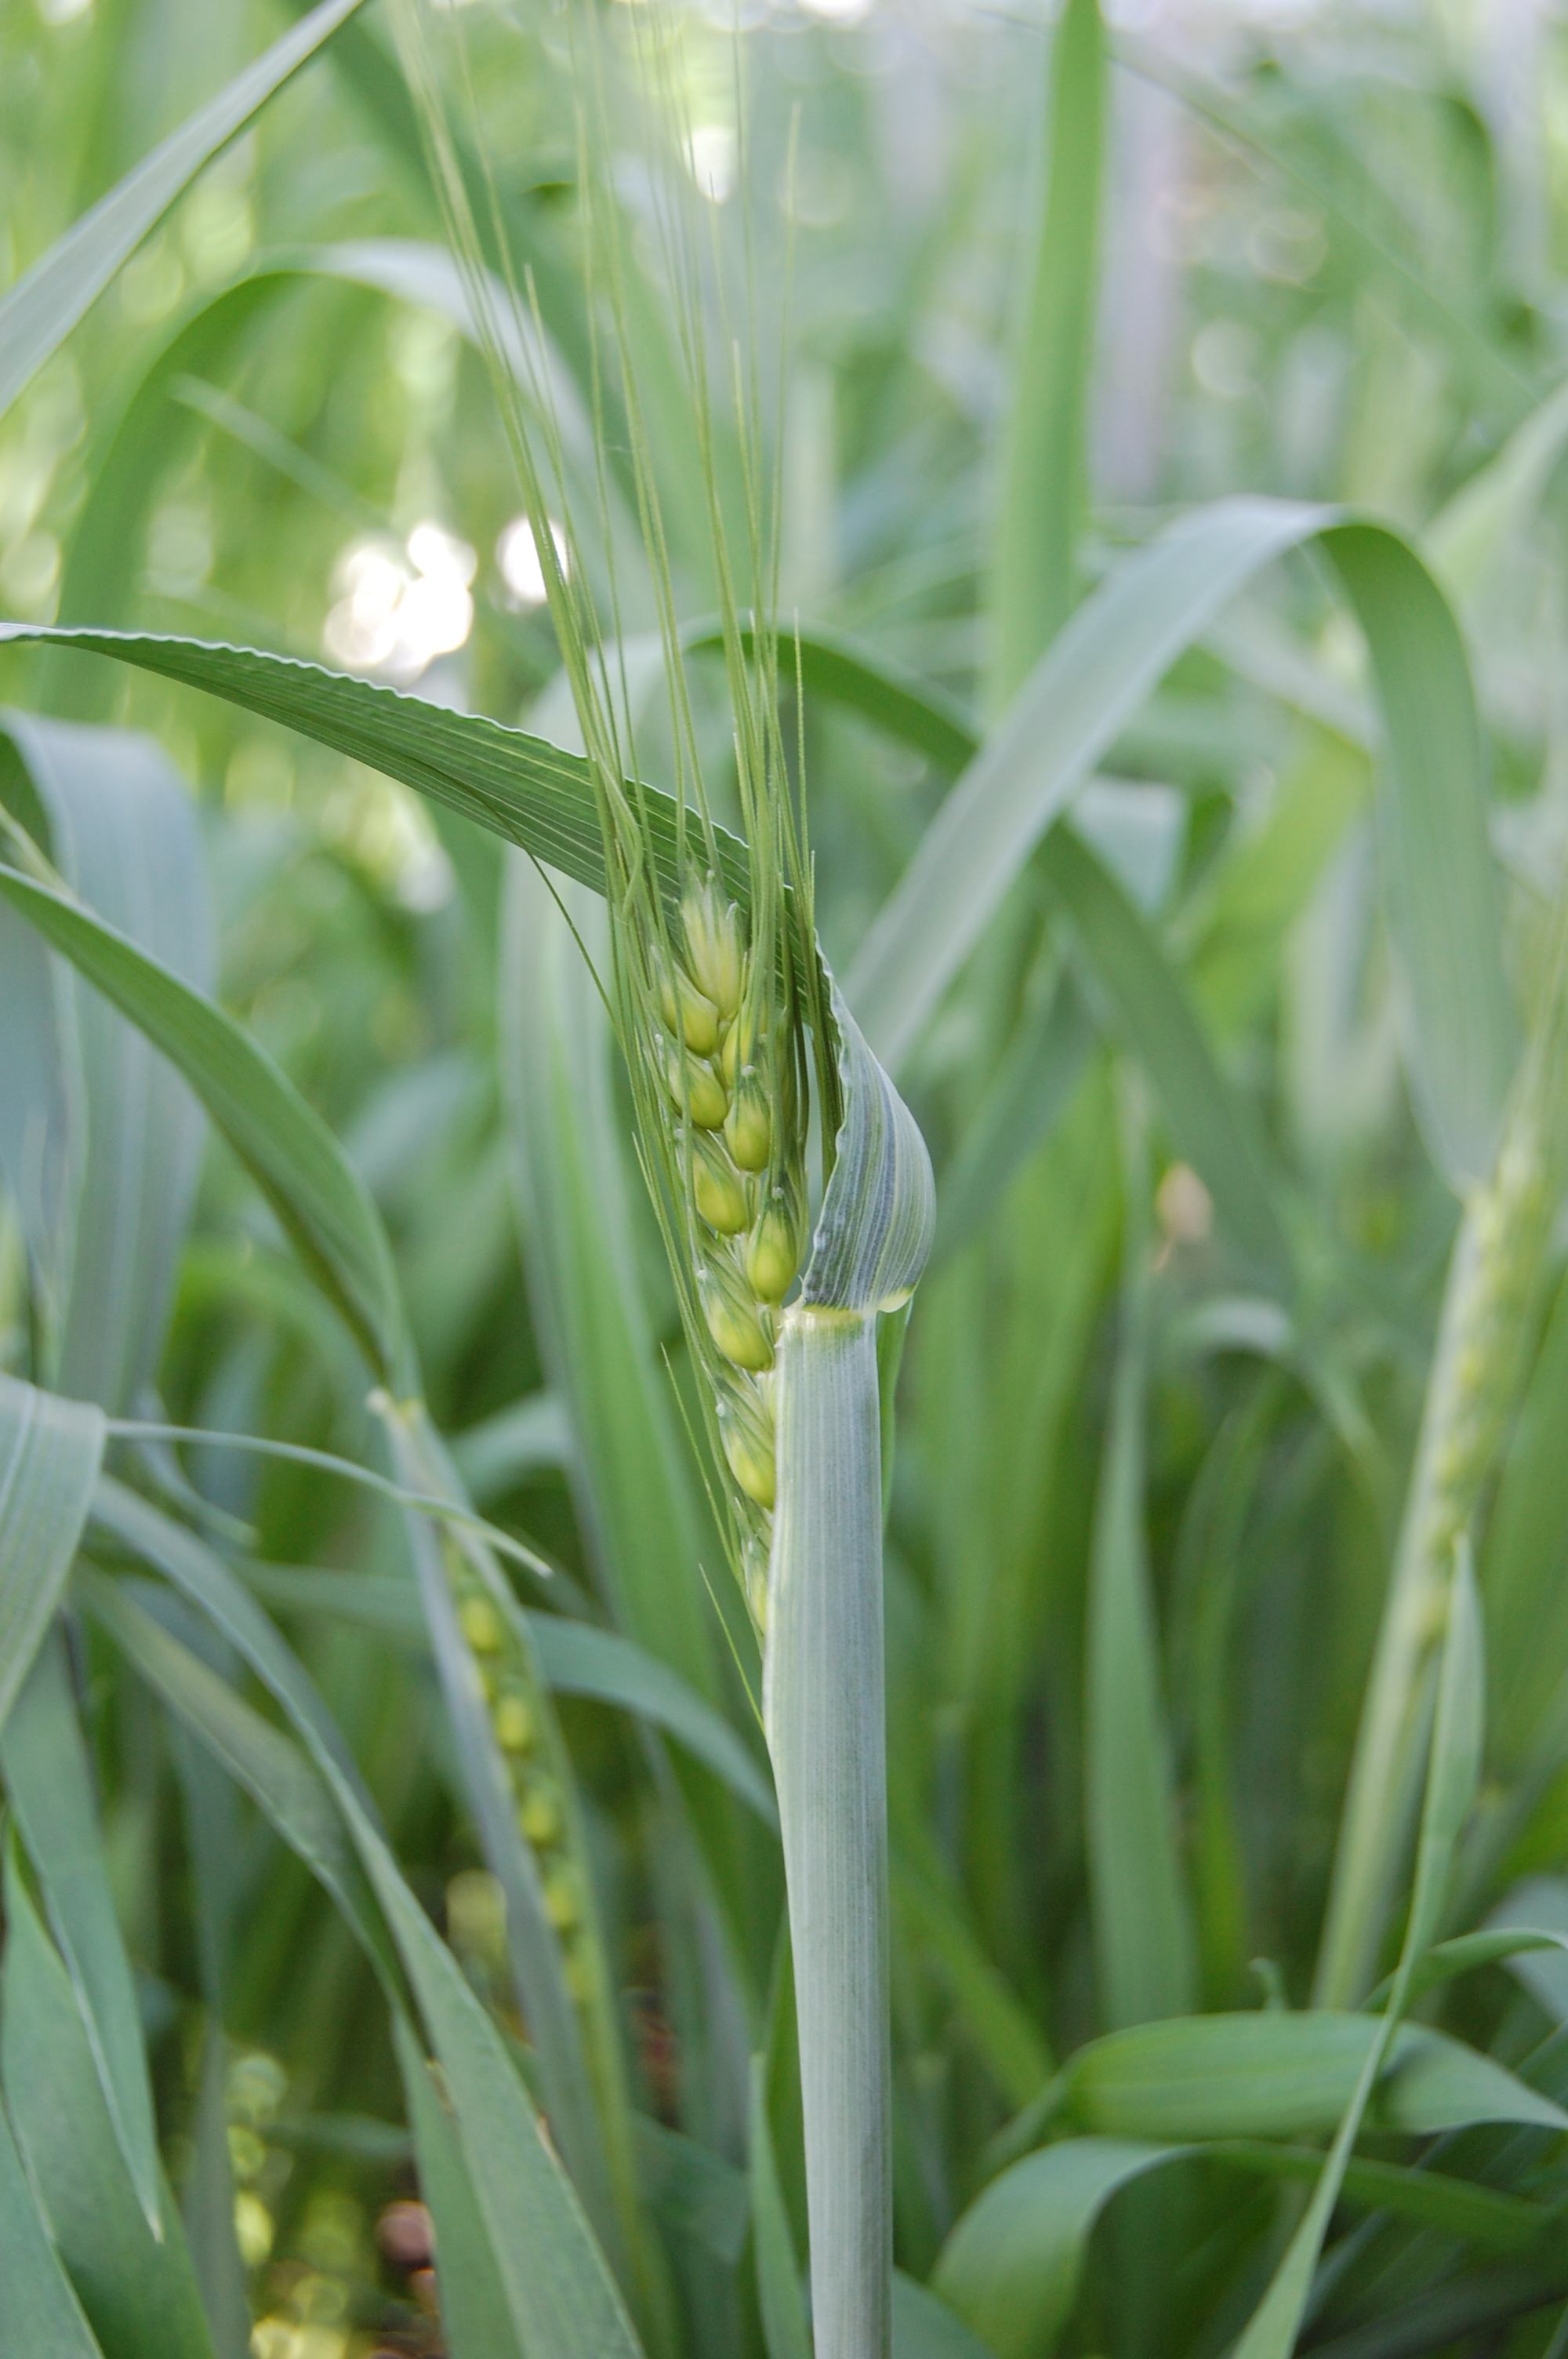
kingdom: Plantae
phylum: Tracheophyta
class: Liliopsida
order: Poales
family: Poaceae
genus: Triticum
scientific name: Triticum aestivum
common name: Common wheat
